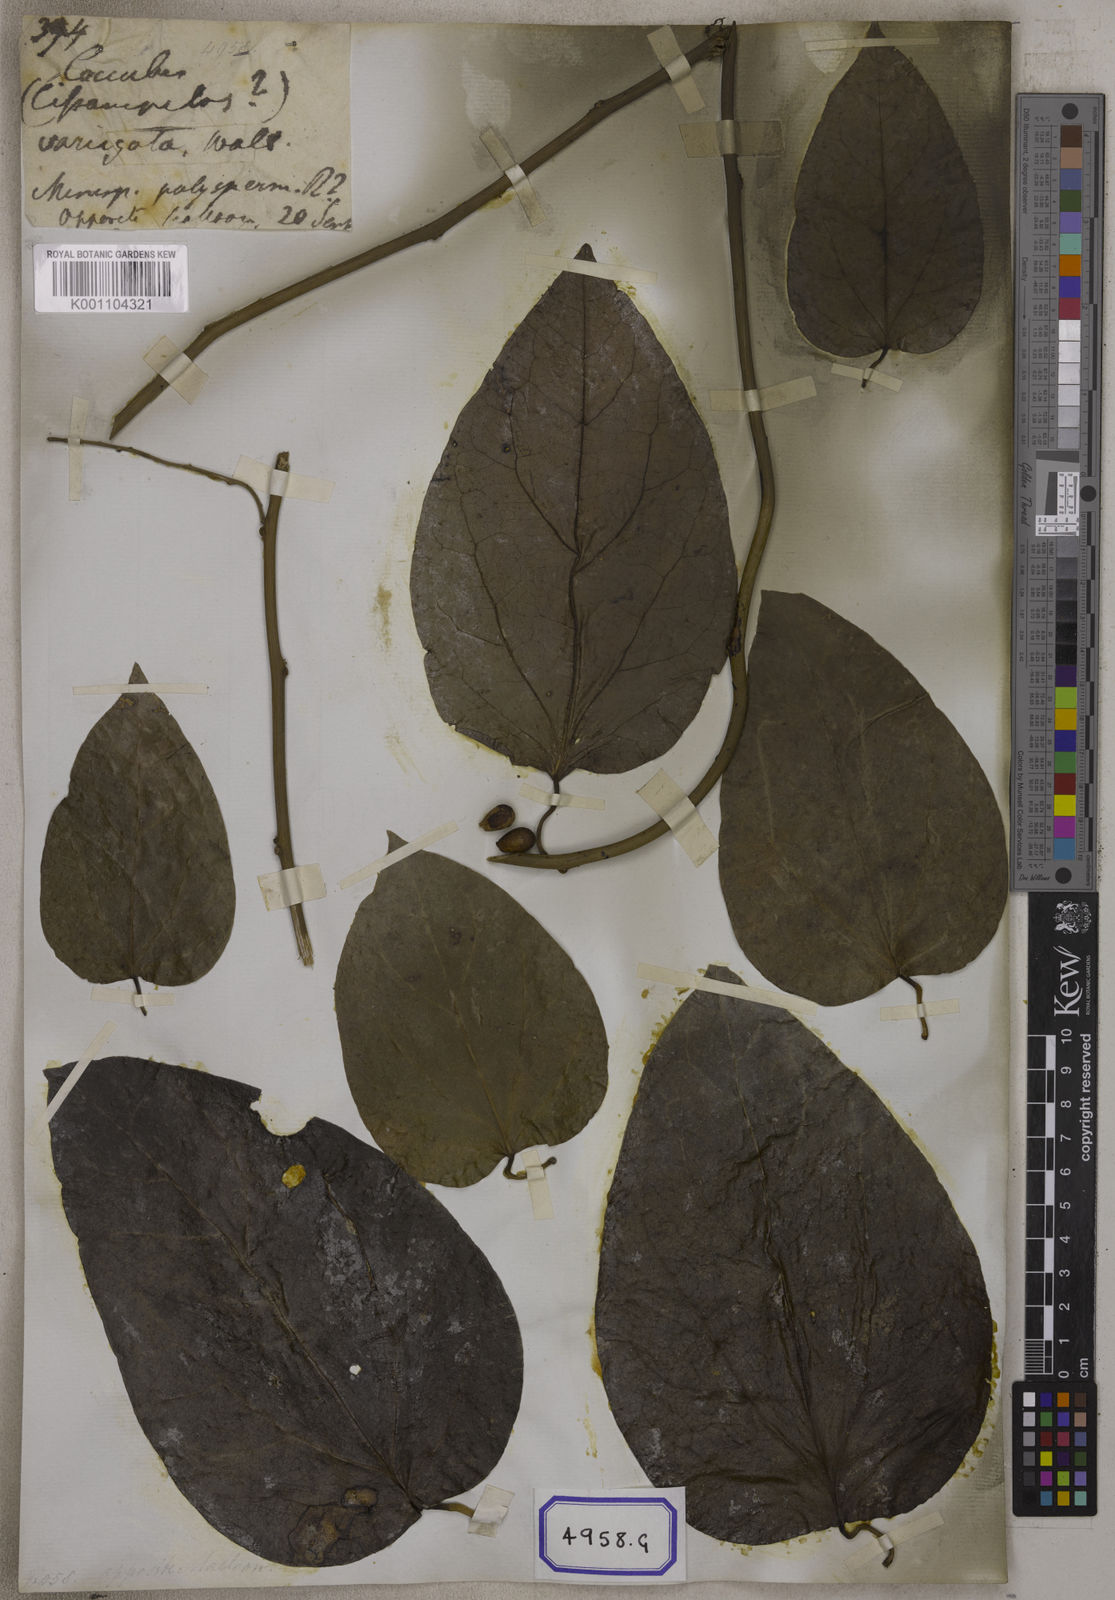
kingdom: Plantae
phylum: Tracheophyta
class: Magnoliopsida
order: Ranunculales
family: Menispermaceae
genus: Cocculus
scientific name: Cocculus
